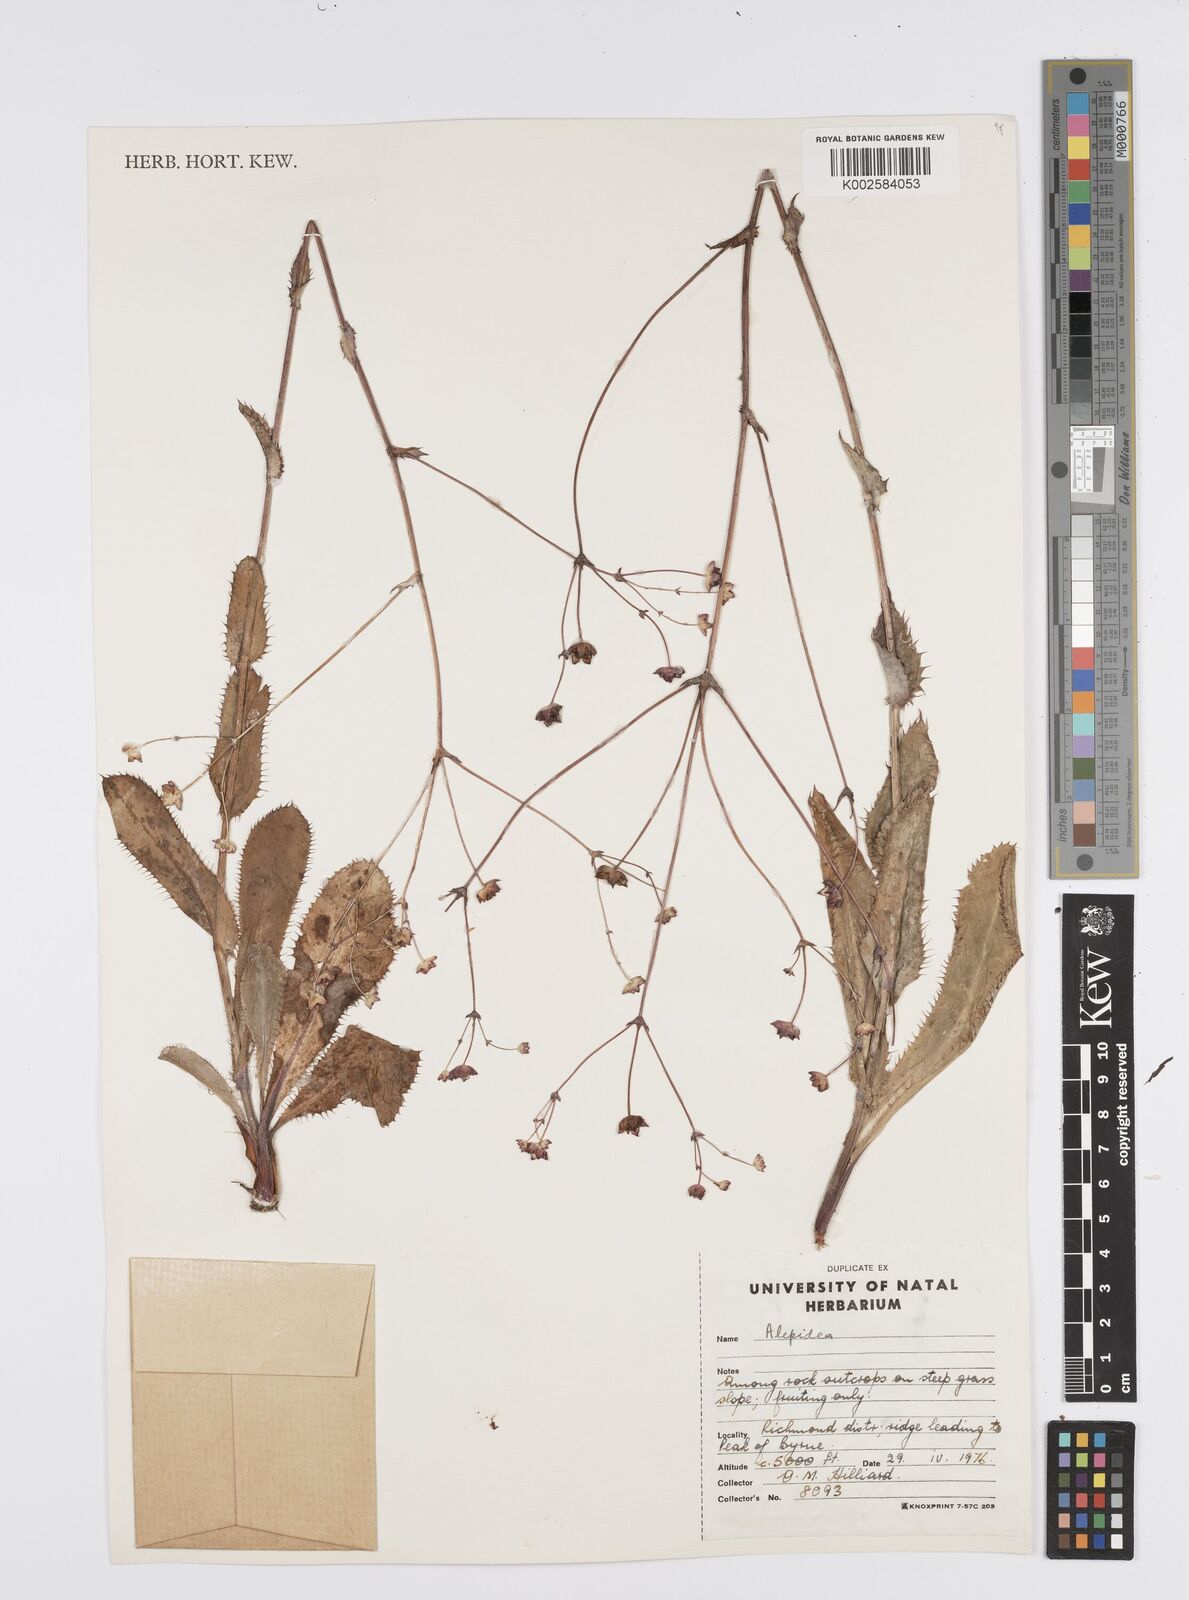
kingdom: Plantae
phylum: Tracheophyta
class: Magnoliopsida
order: Apiales
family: Apiaceae
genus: Alepidea
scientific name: Alepidea woodii
